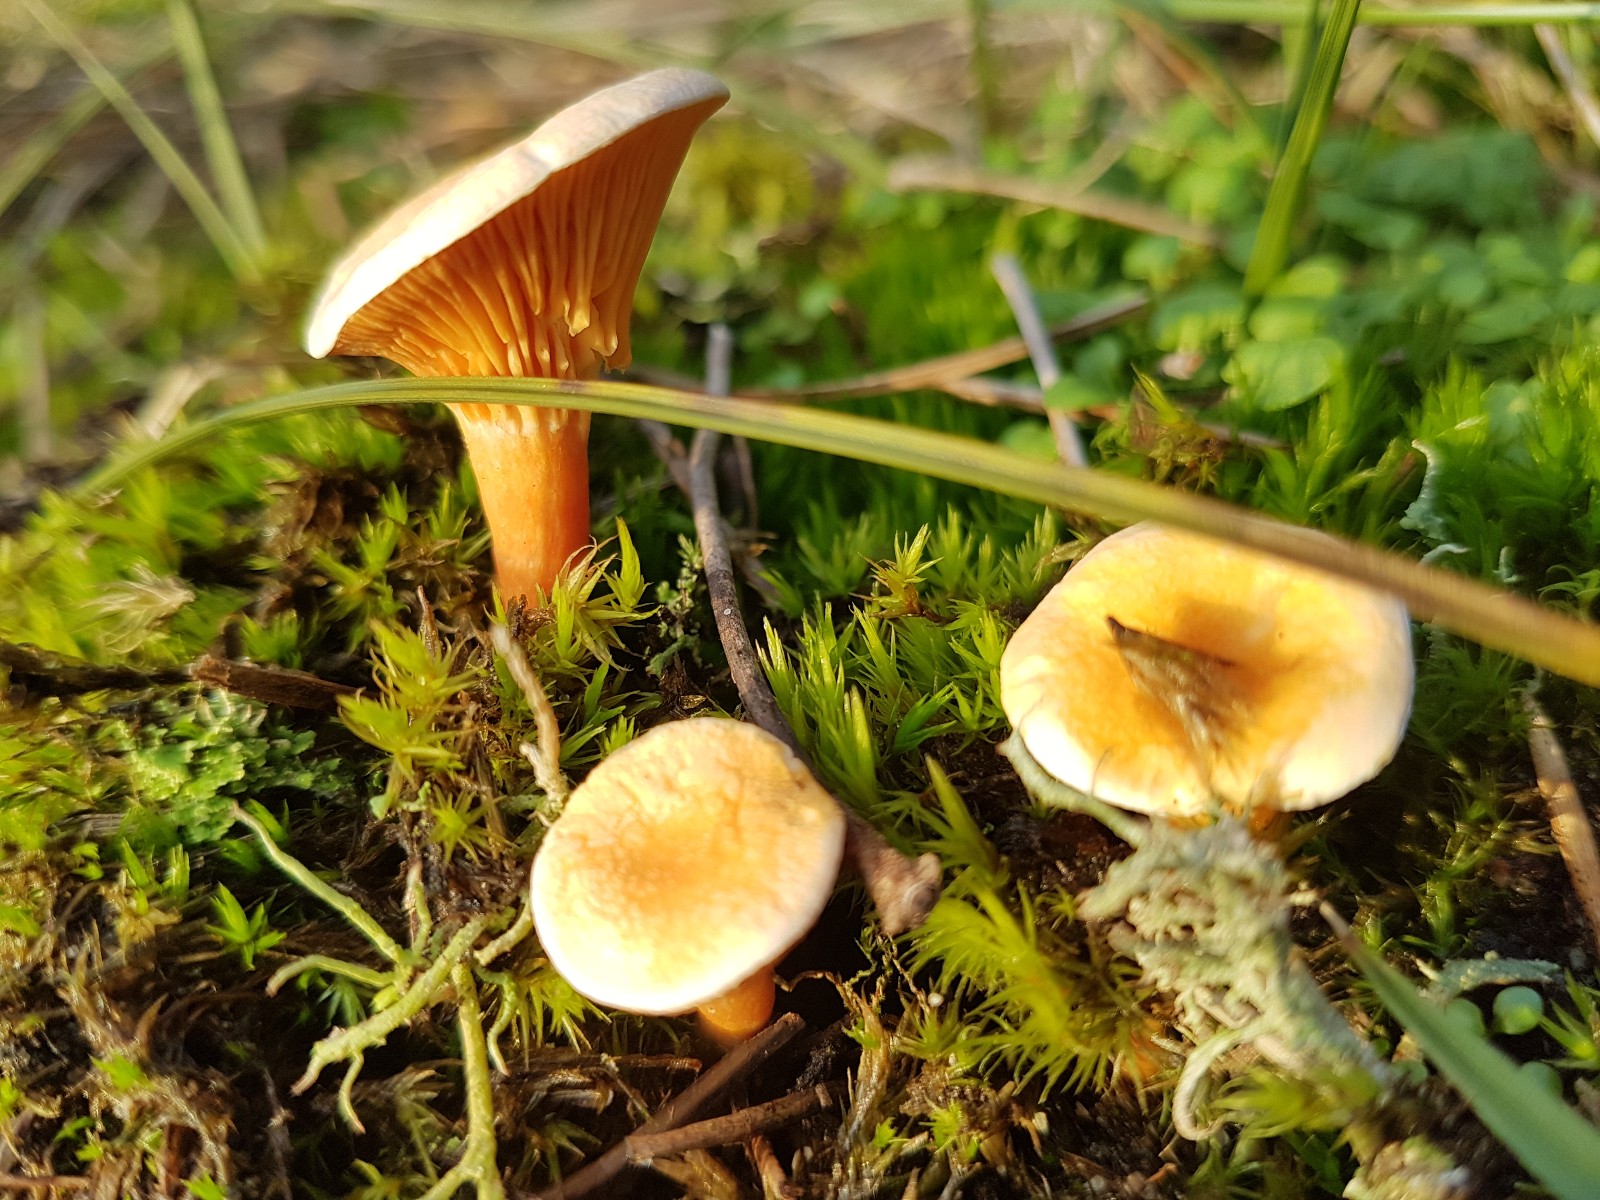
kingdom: Fungi
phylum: Basidiomycota
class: Agaricomycetes
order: Boletales
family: Hygrophoropsidaceae
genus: Hygrophoropsis
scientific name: Hygrophoropsis aurantiaca
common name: almindelig orangekantarel
